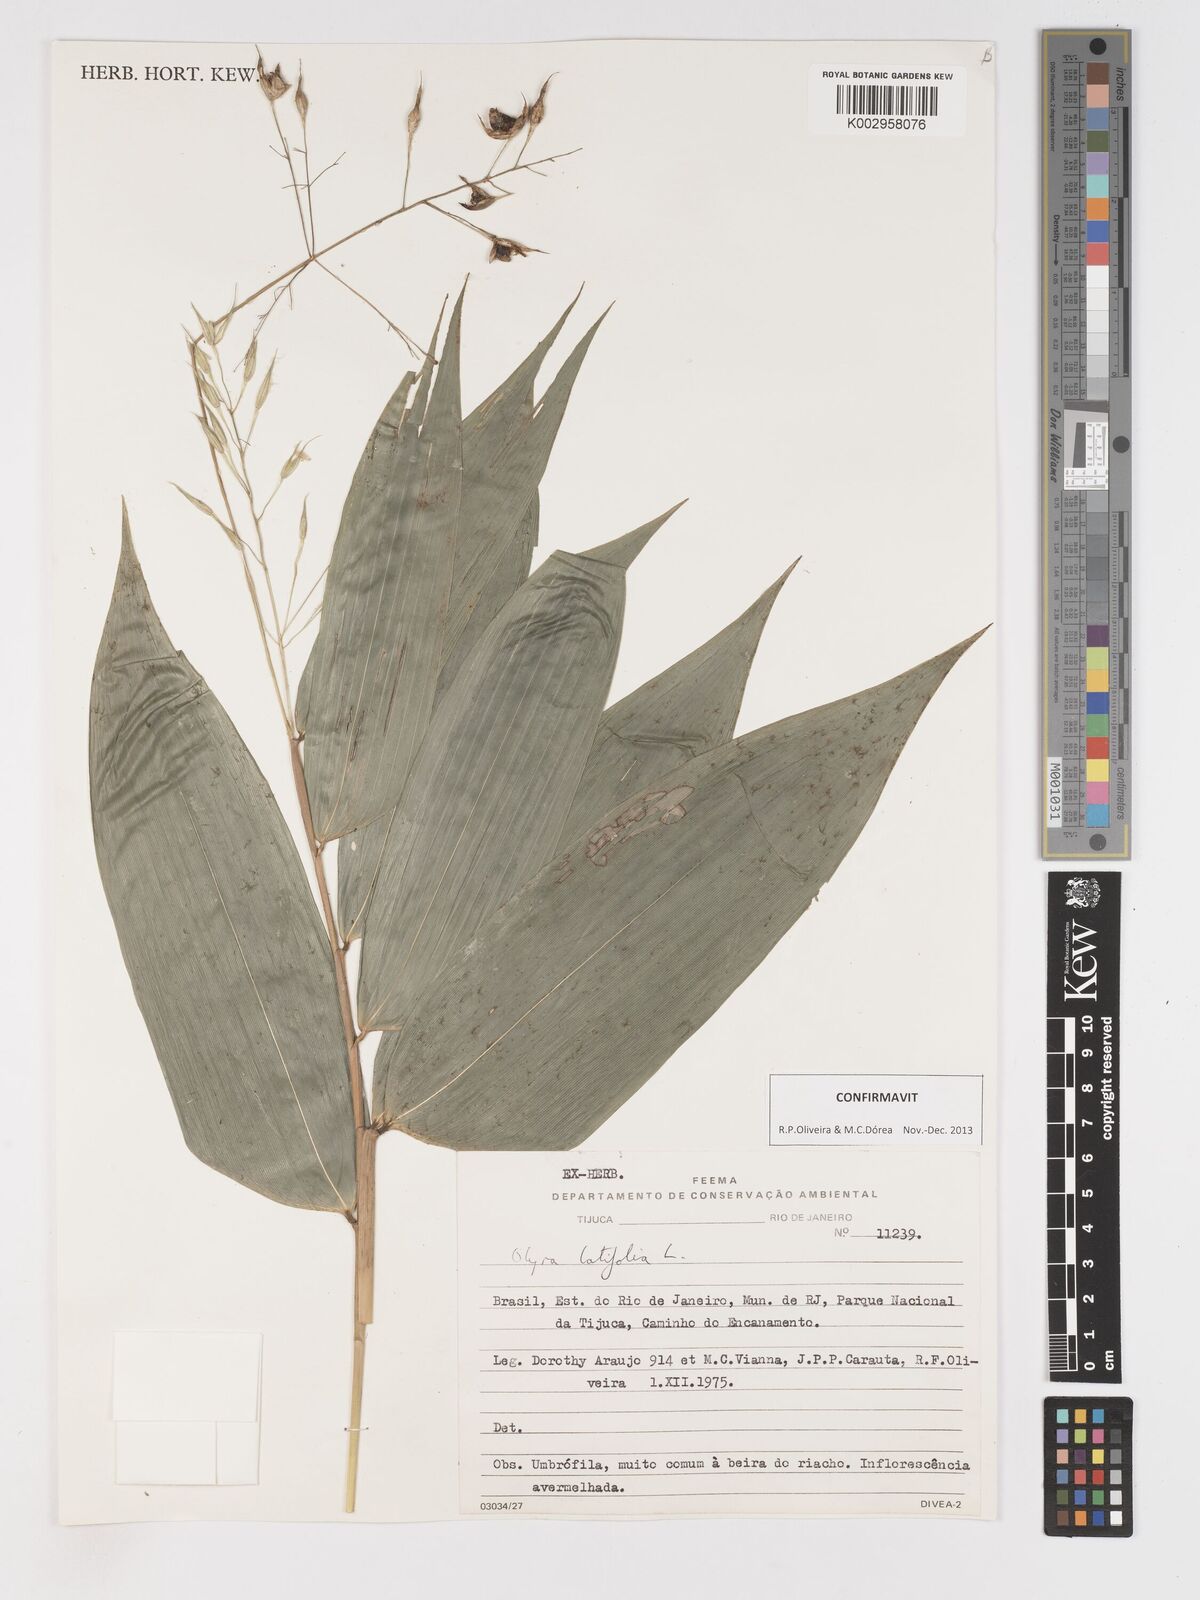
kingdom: Plantae
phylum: Tracheophyta
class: Liliopsida
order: Poales
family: Poaceae
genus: Olyra
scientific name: Olyra latifolia
